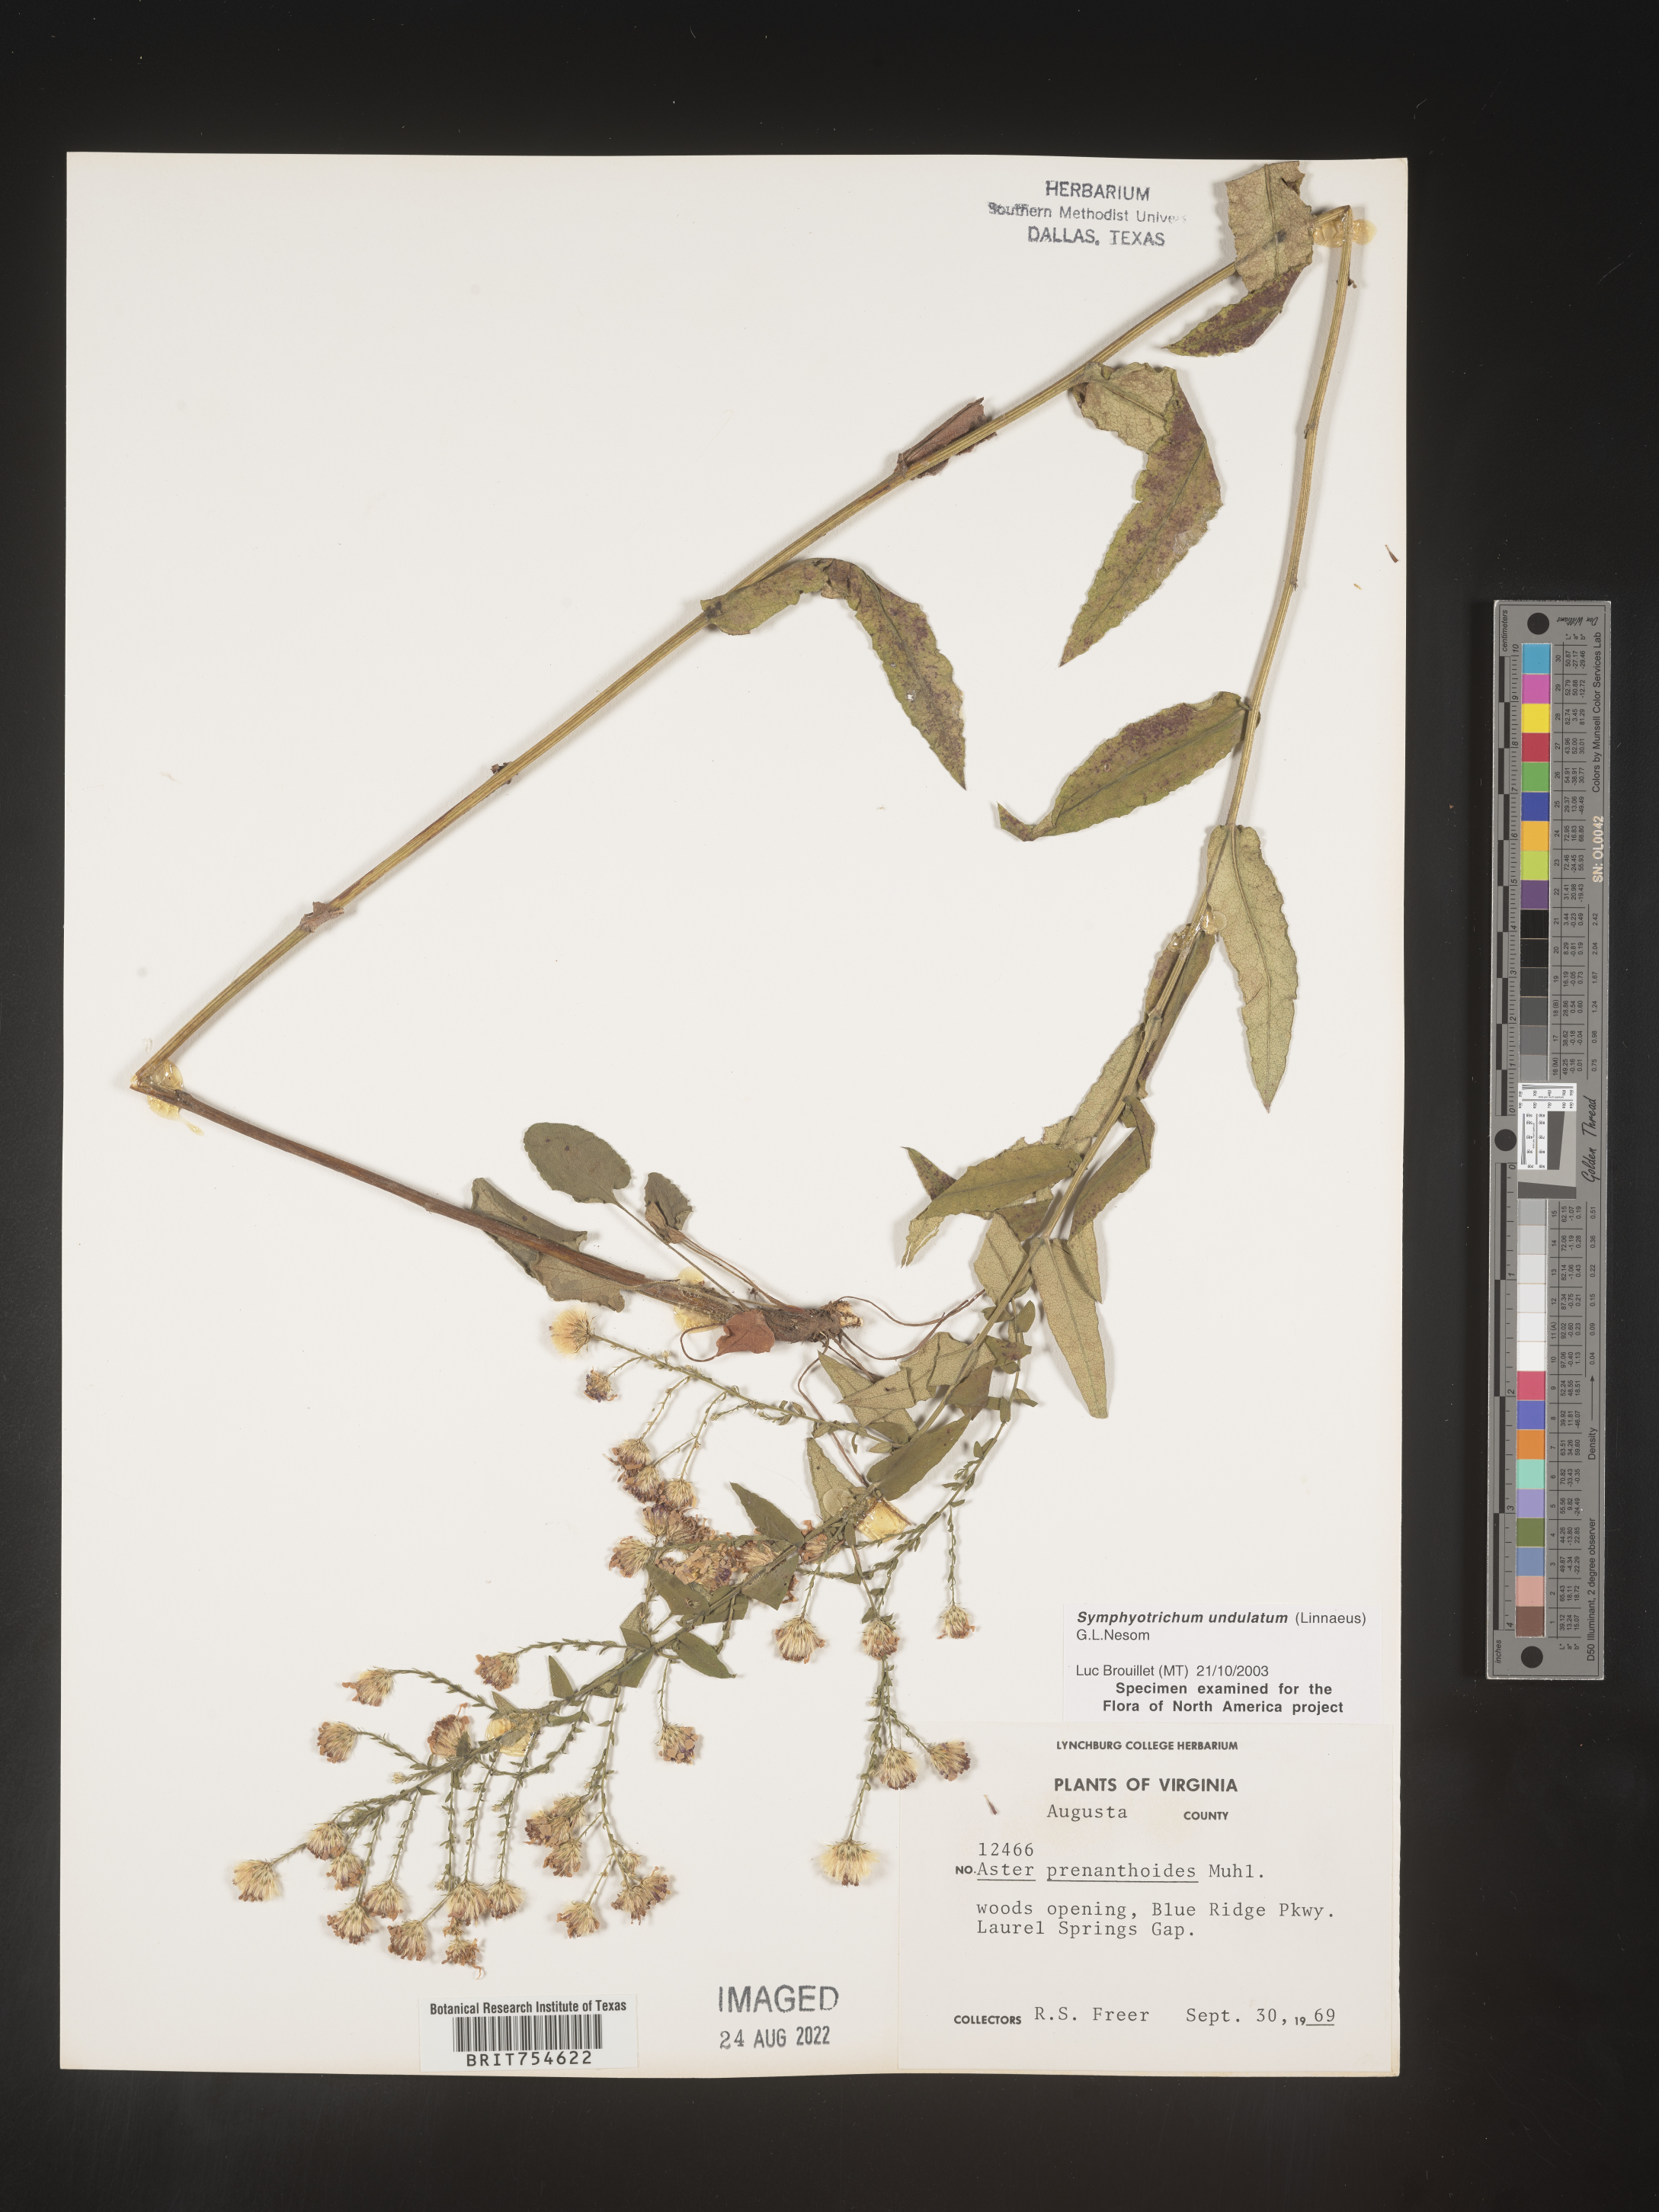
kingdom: Plantae
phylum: Tracheophyta
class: Magnoliopsida
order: Asterales
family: Asteraceae
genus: Symphyotrichum
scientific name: Symphyotrichum undulatum
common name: Clasping heart-leaf aster
